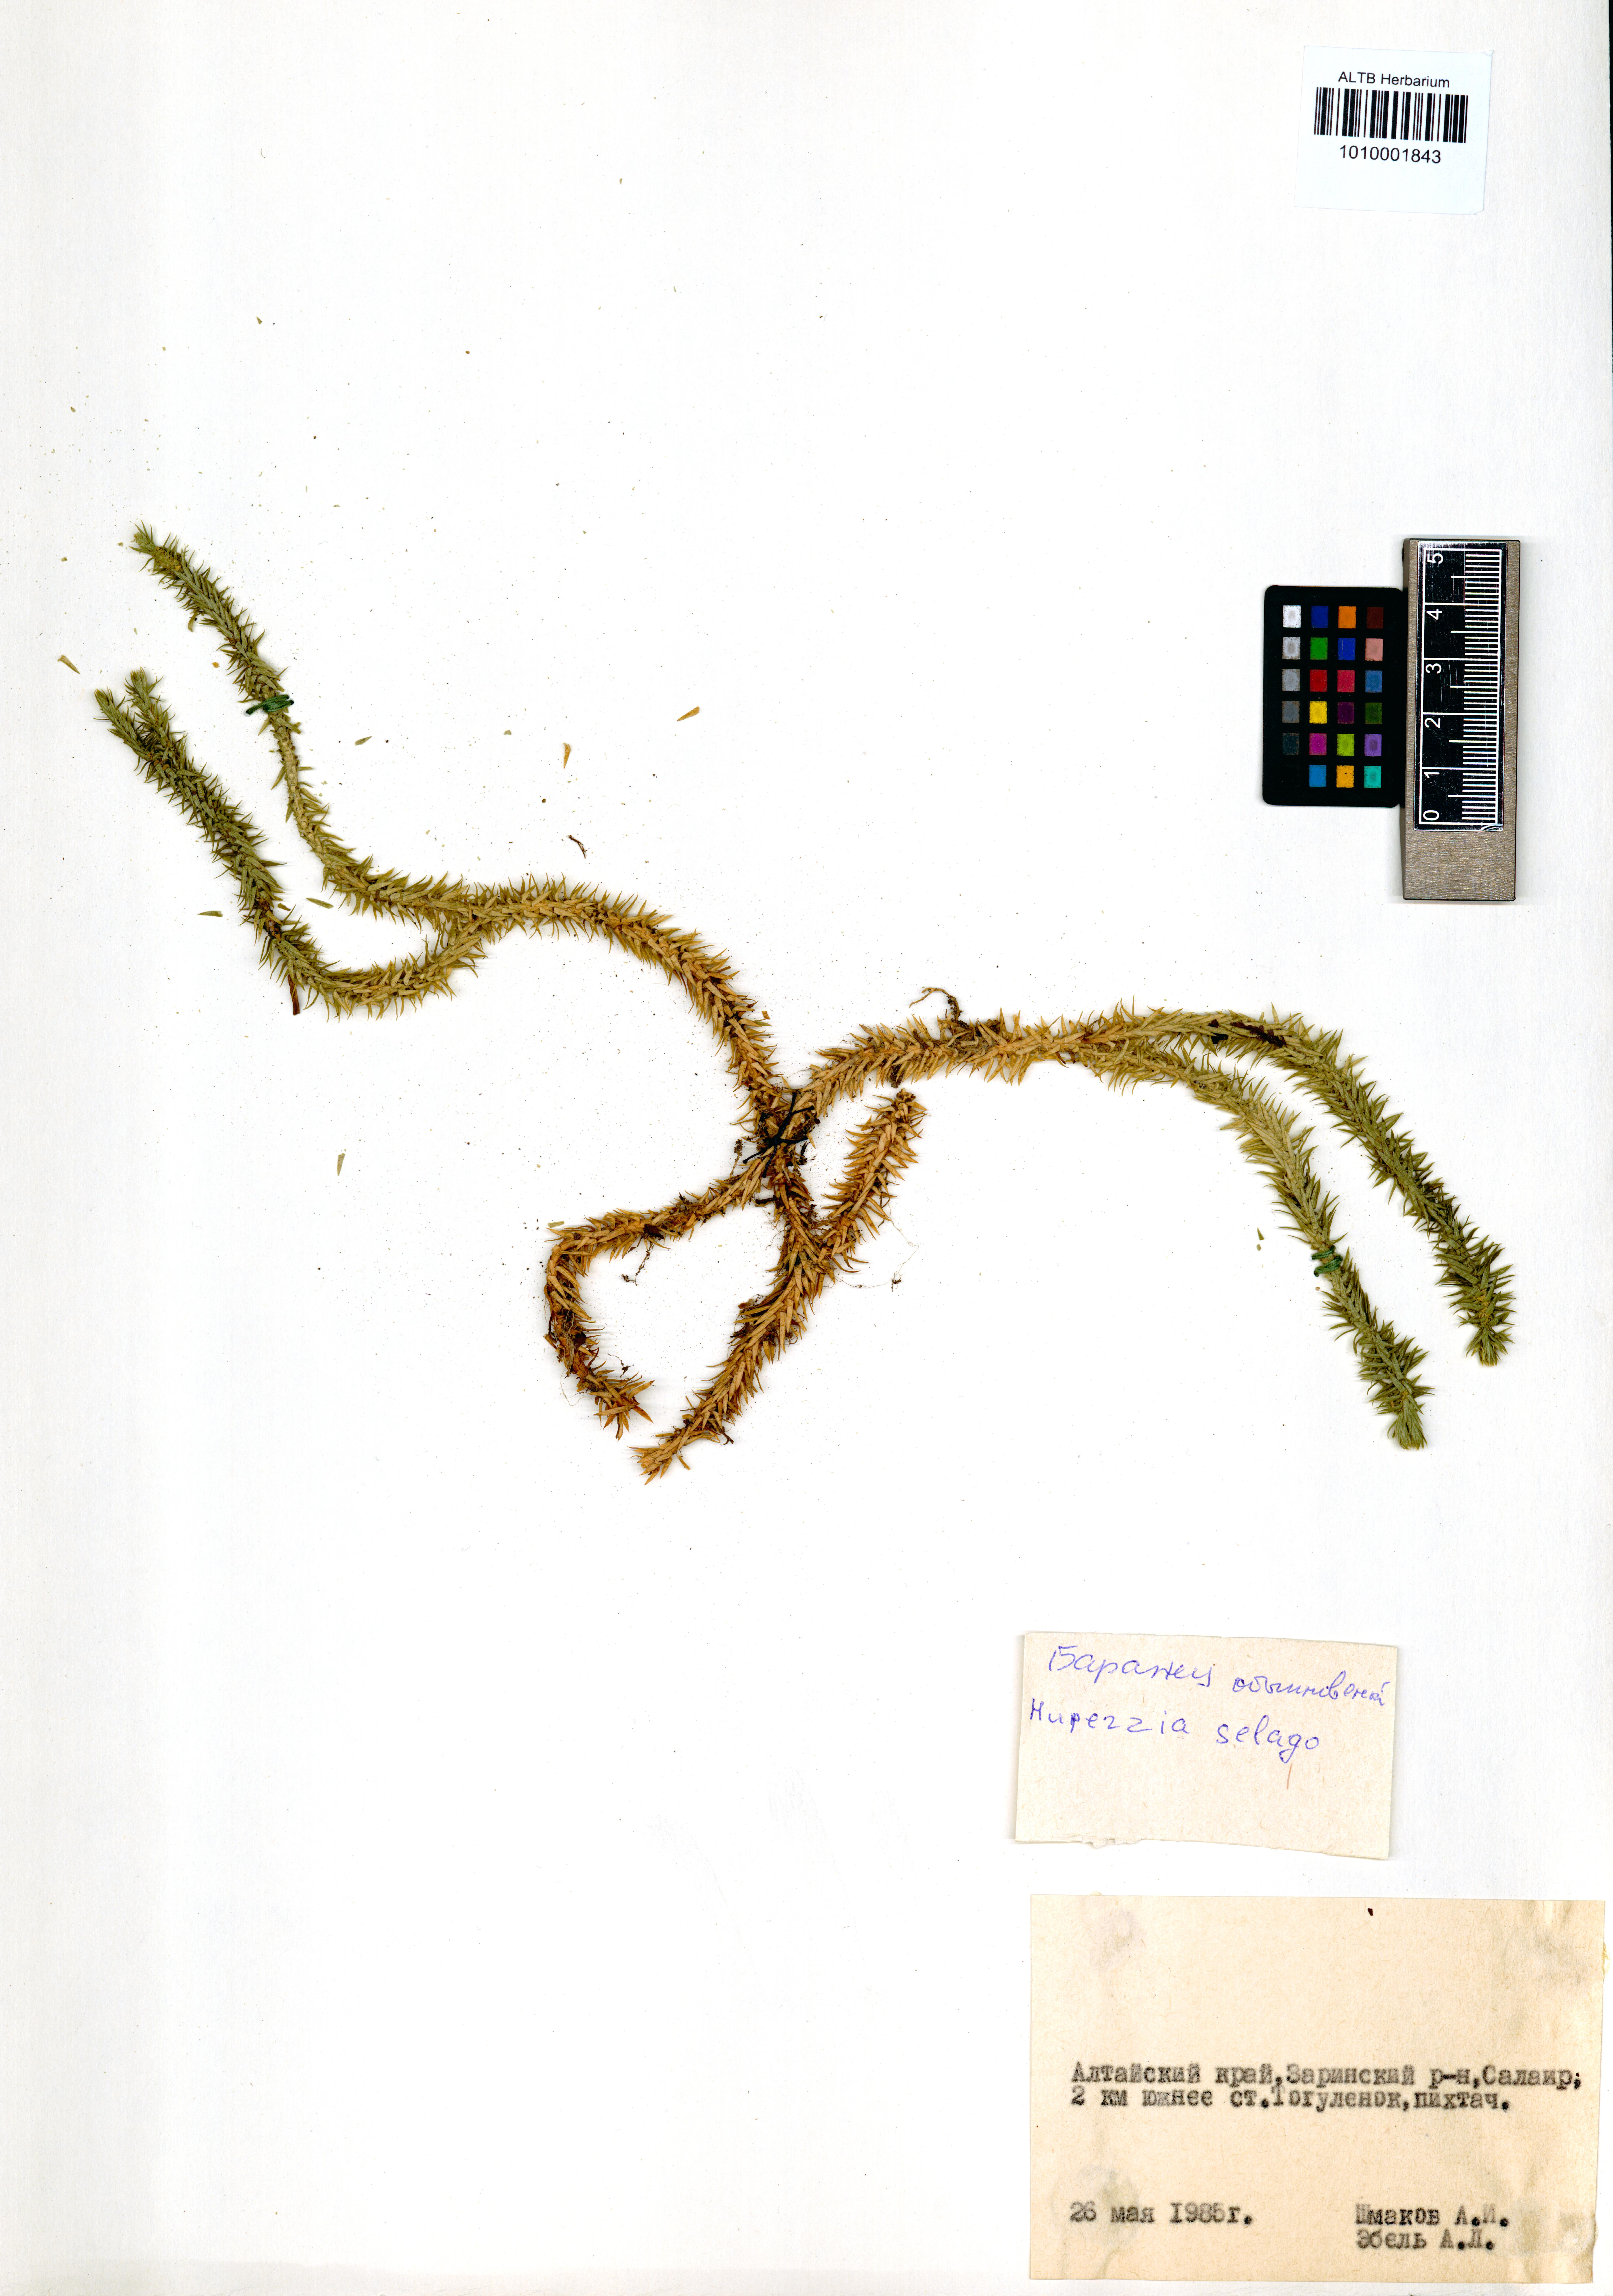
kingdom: Plantae
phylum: Tracheophyta
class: Lycopodiopsida
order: Lycopodiales
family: Lycopodiaceae
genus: Huperzia
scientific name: Huperzia selago
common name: Northern firmoss
